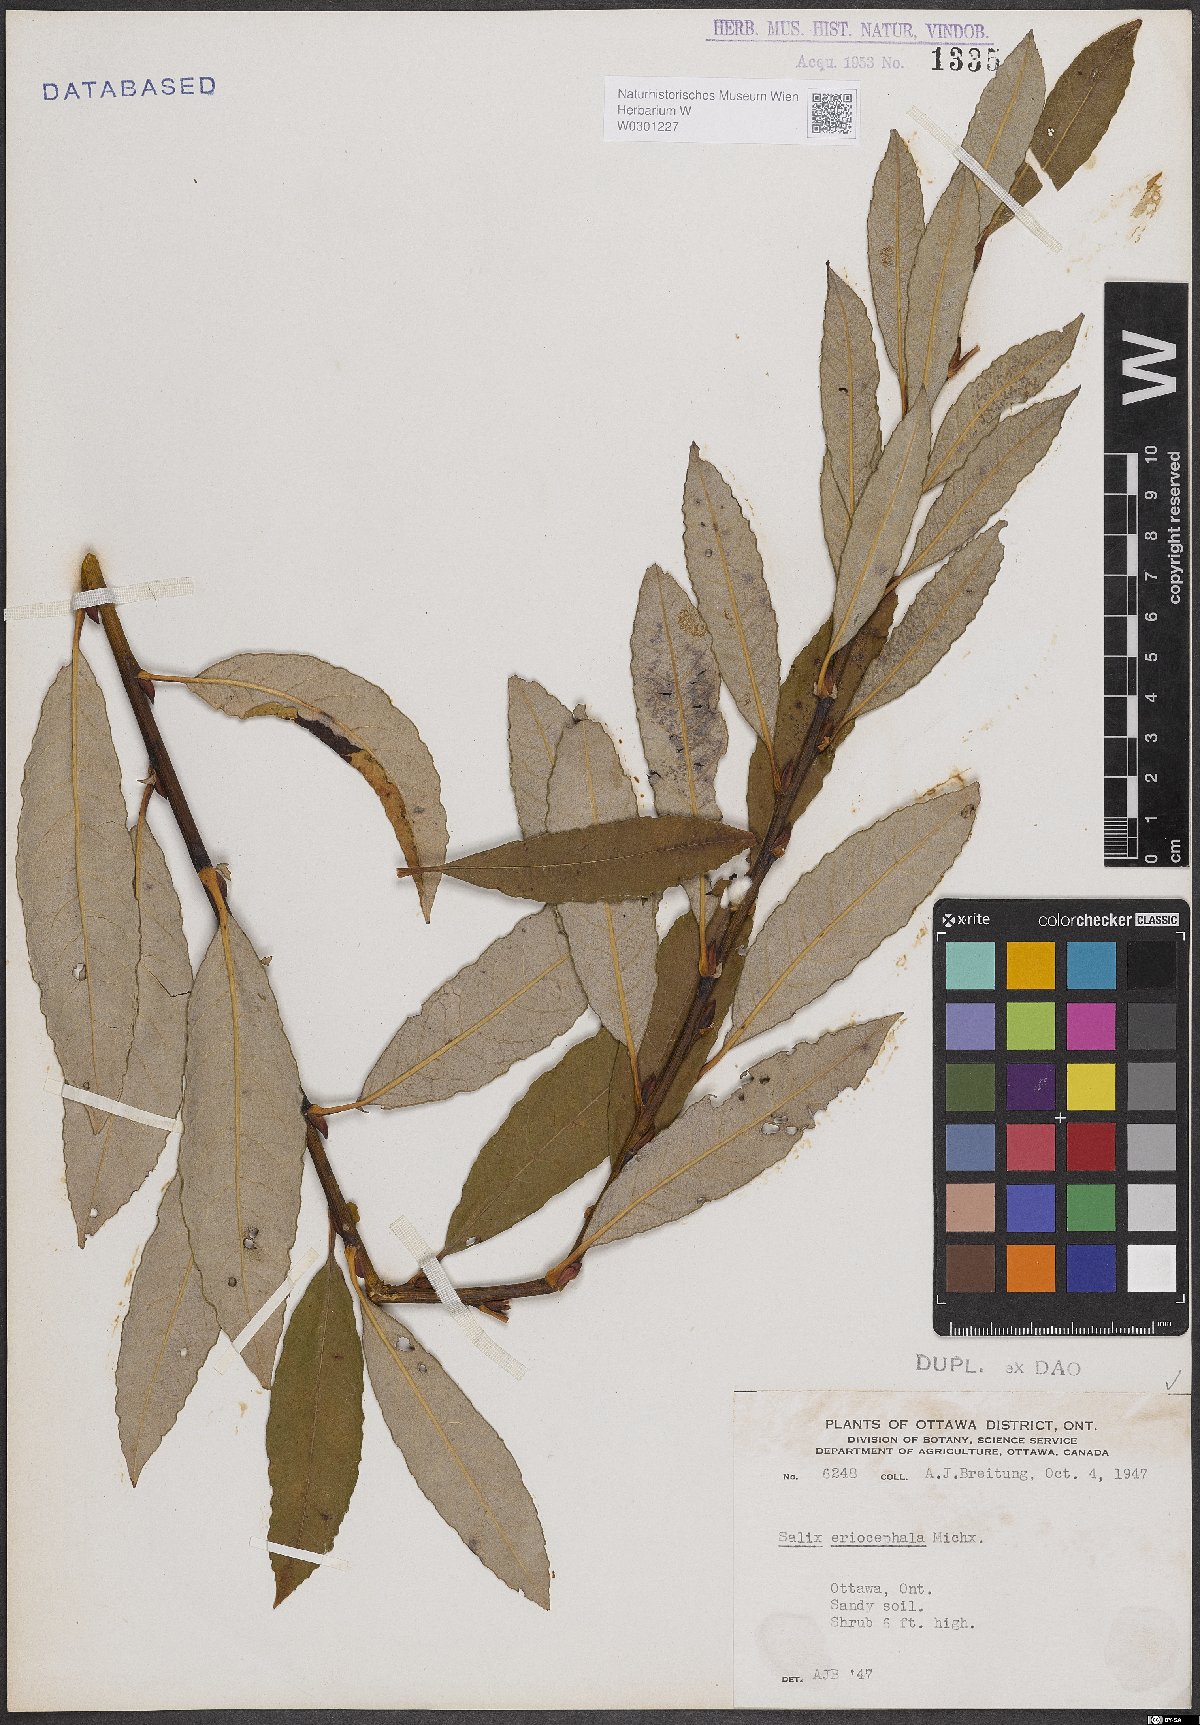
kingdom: Plantae
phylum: Tracheophyta
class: Magnoliopsida
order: Malpighiales
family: Salicaceae
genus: Salix
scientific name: Salix eriocephala
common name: Heart-leaved willow
